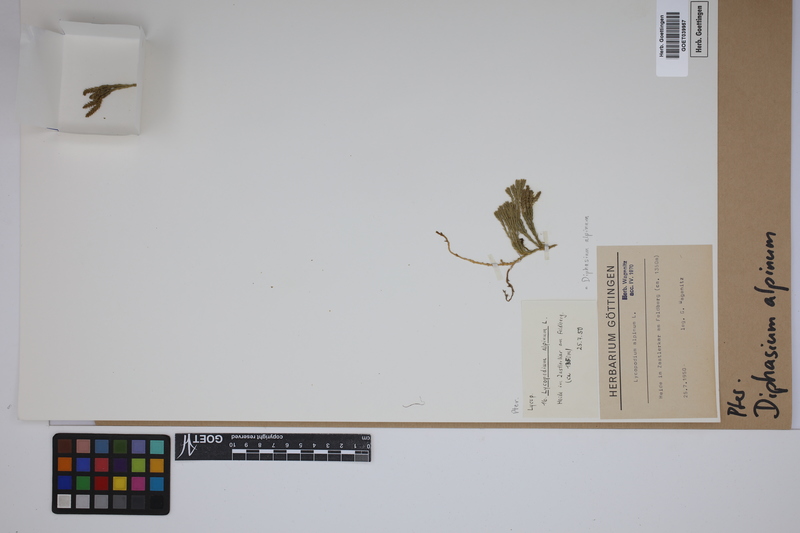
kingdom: Plantae
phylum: Tracheophyta
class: Lycopodiopsida
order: Lycopodiales
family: Lycopodiaceae
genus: Diphasiastrum
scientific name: Diphasiastrum alpinum
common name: Alpine clubmoss
